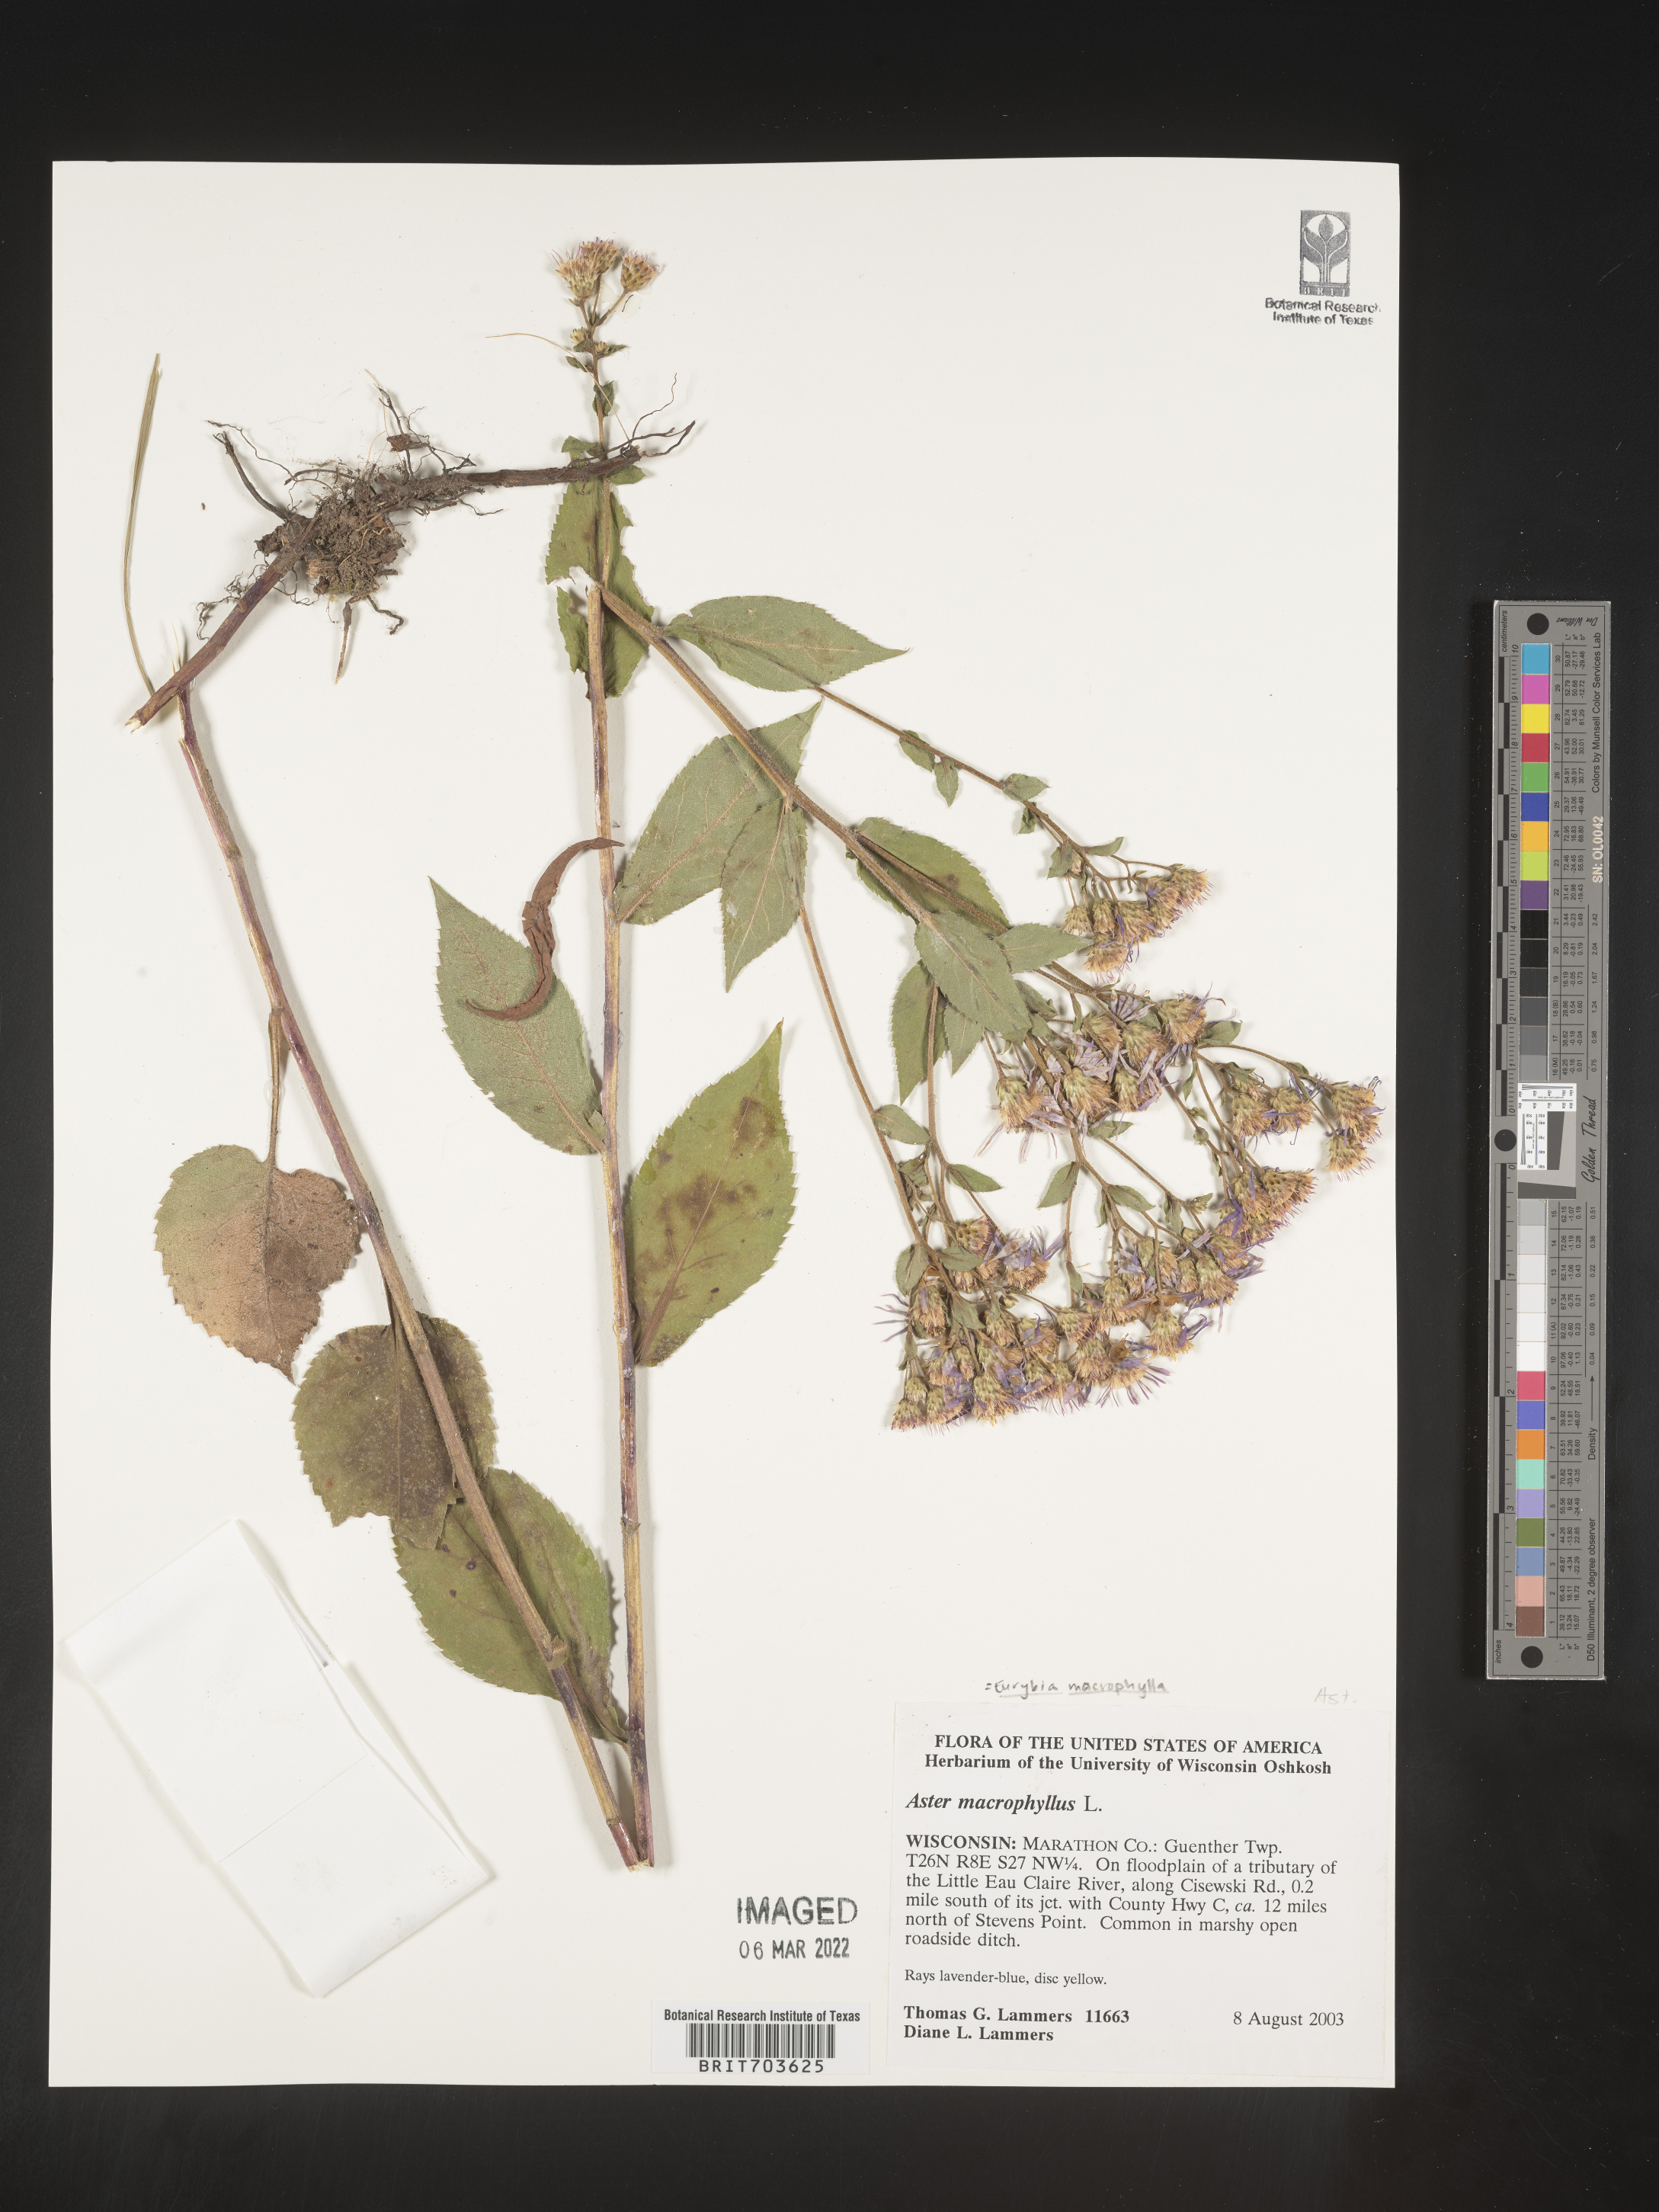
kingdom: Plantae
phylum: Tracheophyta
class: Magnoliopsida
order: Asterales
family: Asteraceae
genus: Eurybia
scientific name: Eurybia macrophylla
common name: Big-leaved aster
